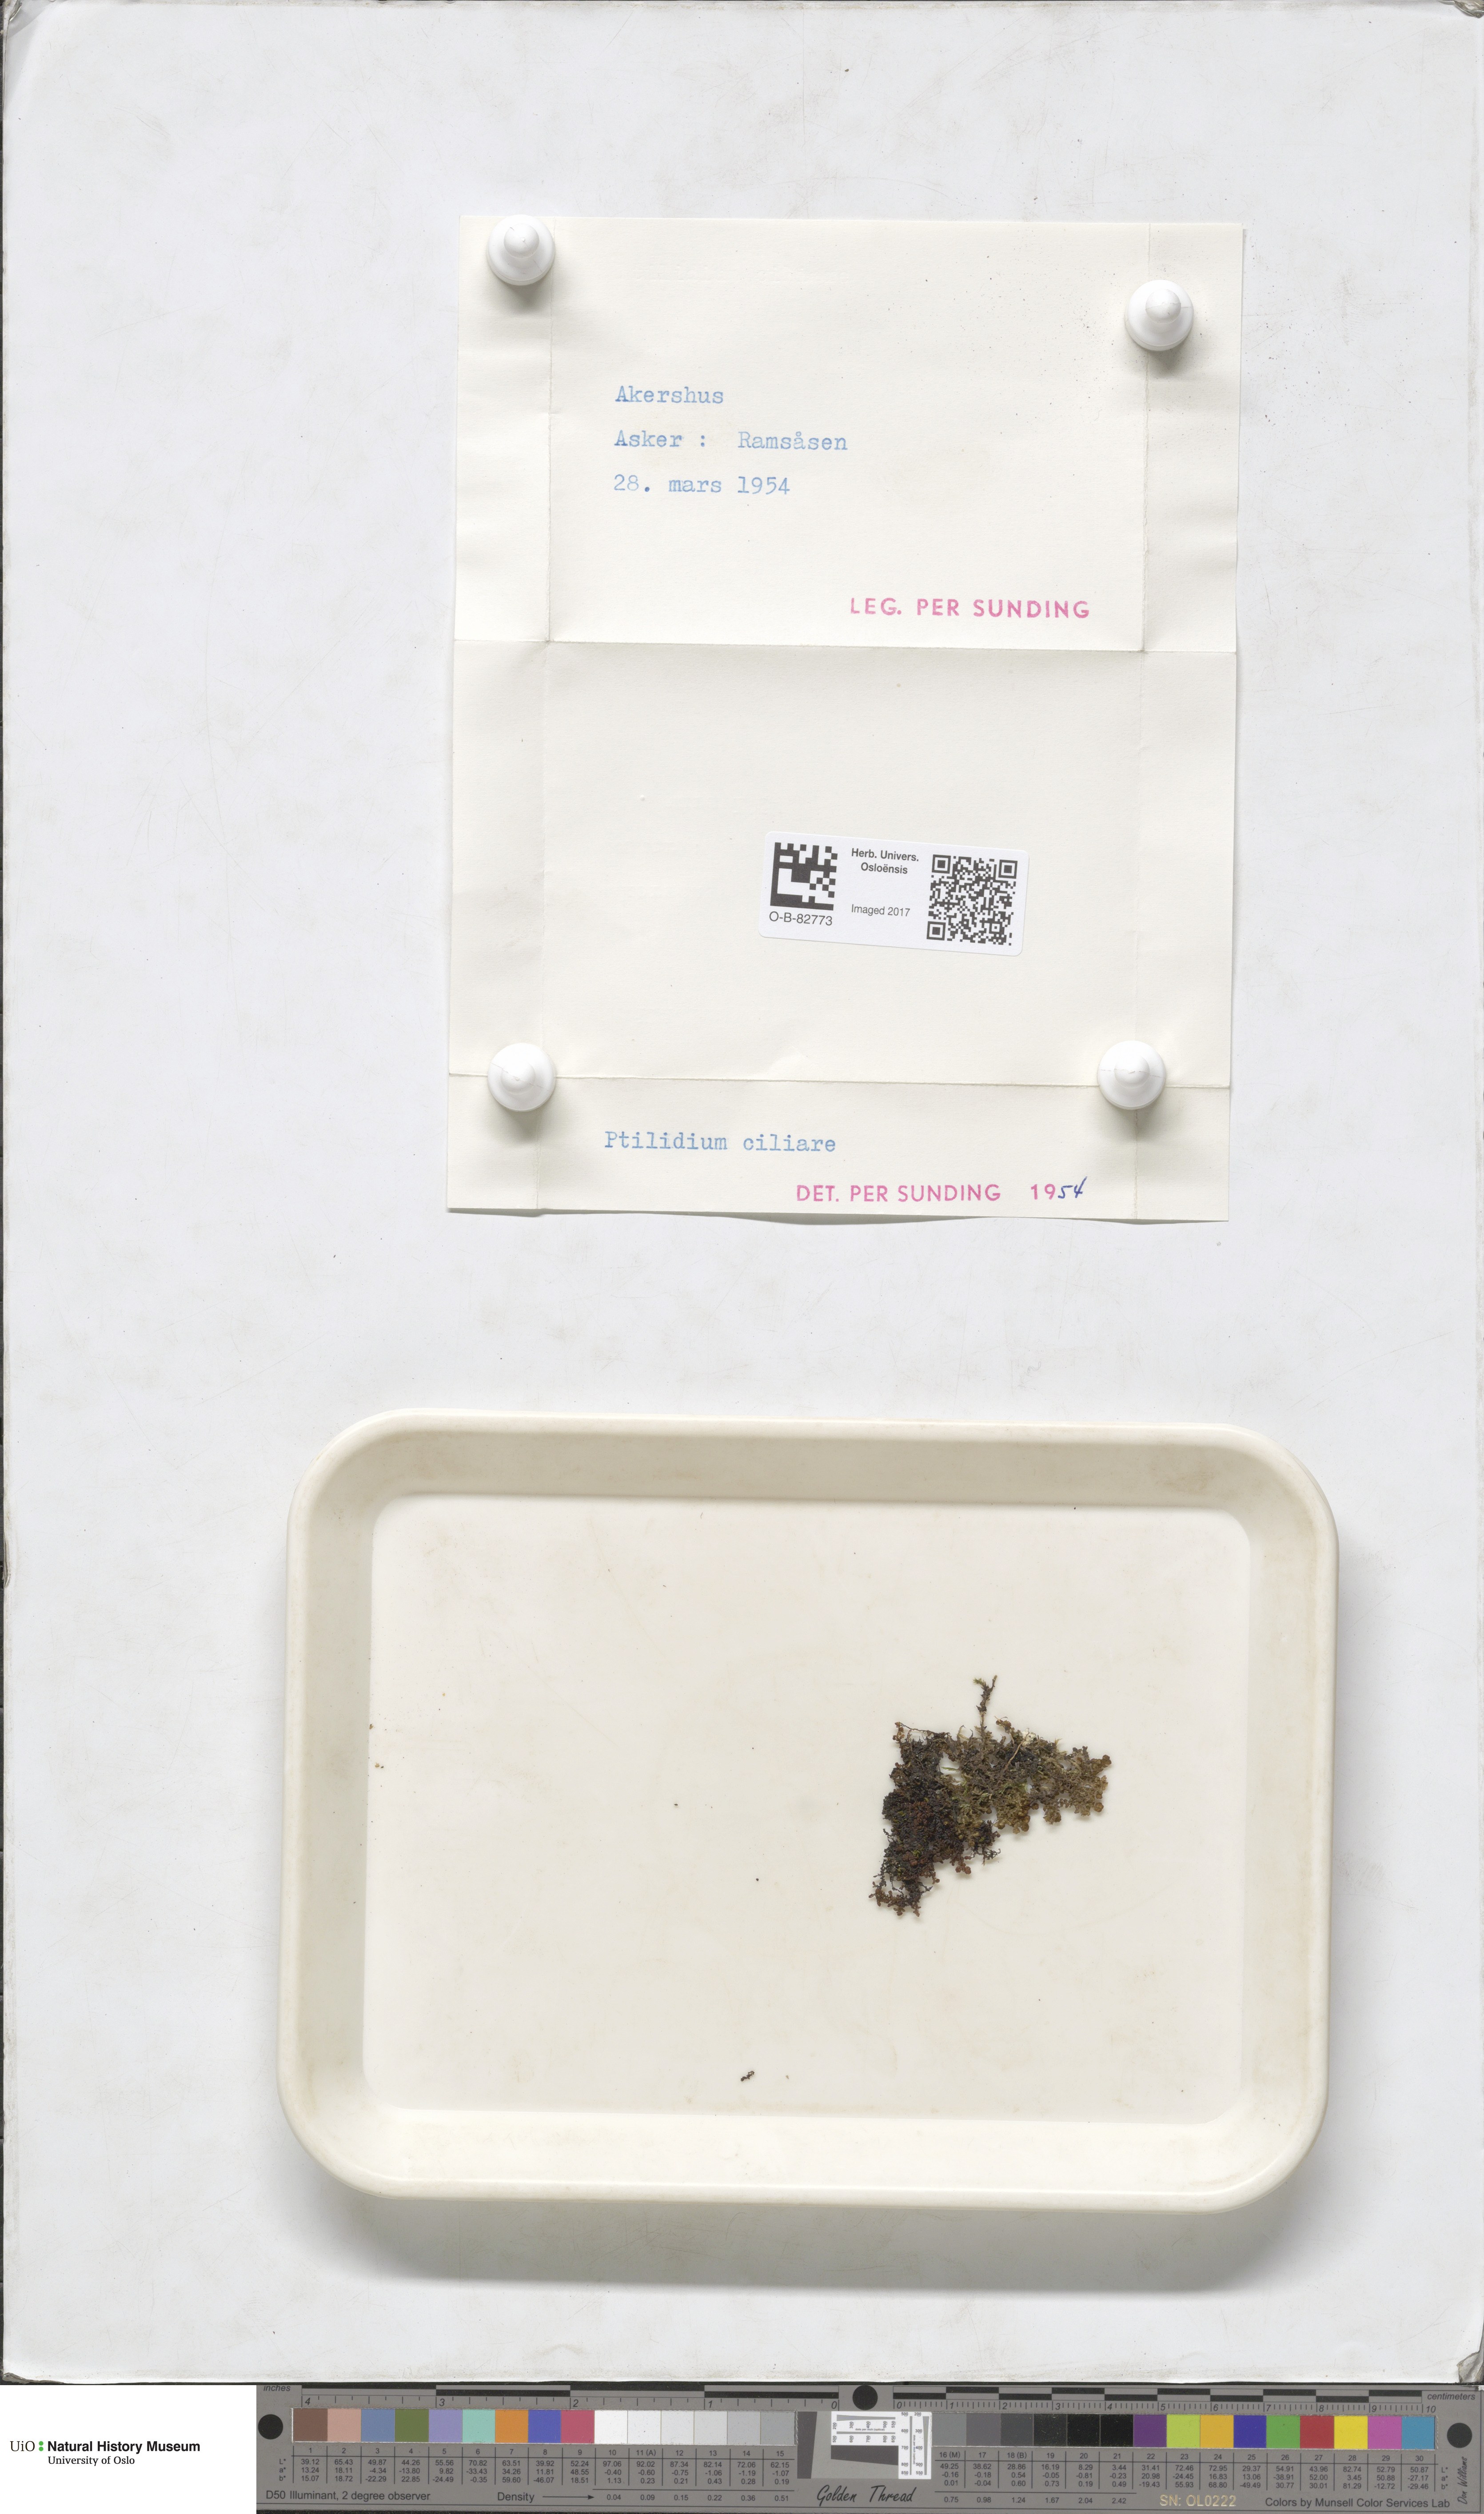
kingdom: Plantae
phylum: Marchantiophyta
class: Jungermanniopsida
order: Ptilidiales
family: Ptilidiaceae
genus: Ptilidium
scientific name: Ptilidium ciliare
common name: Ciliate fringewort
